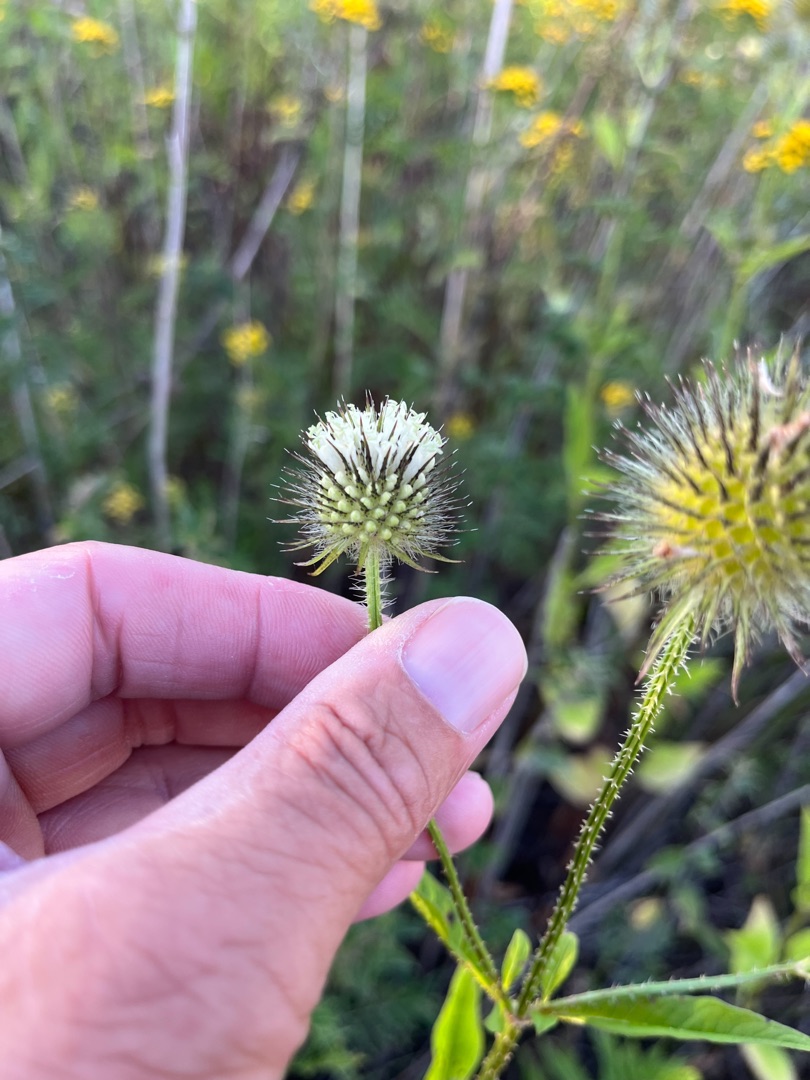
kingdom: Plantae
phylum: Tracheophyta
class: Magnoliopsida
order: Dipsacales
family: Caprifoliaceae
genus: Dipsacus
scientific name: Dipsacus strigosus
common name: Pindsvin-kartebolle
